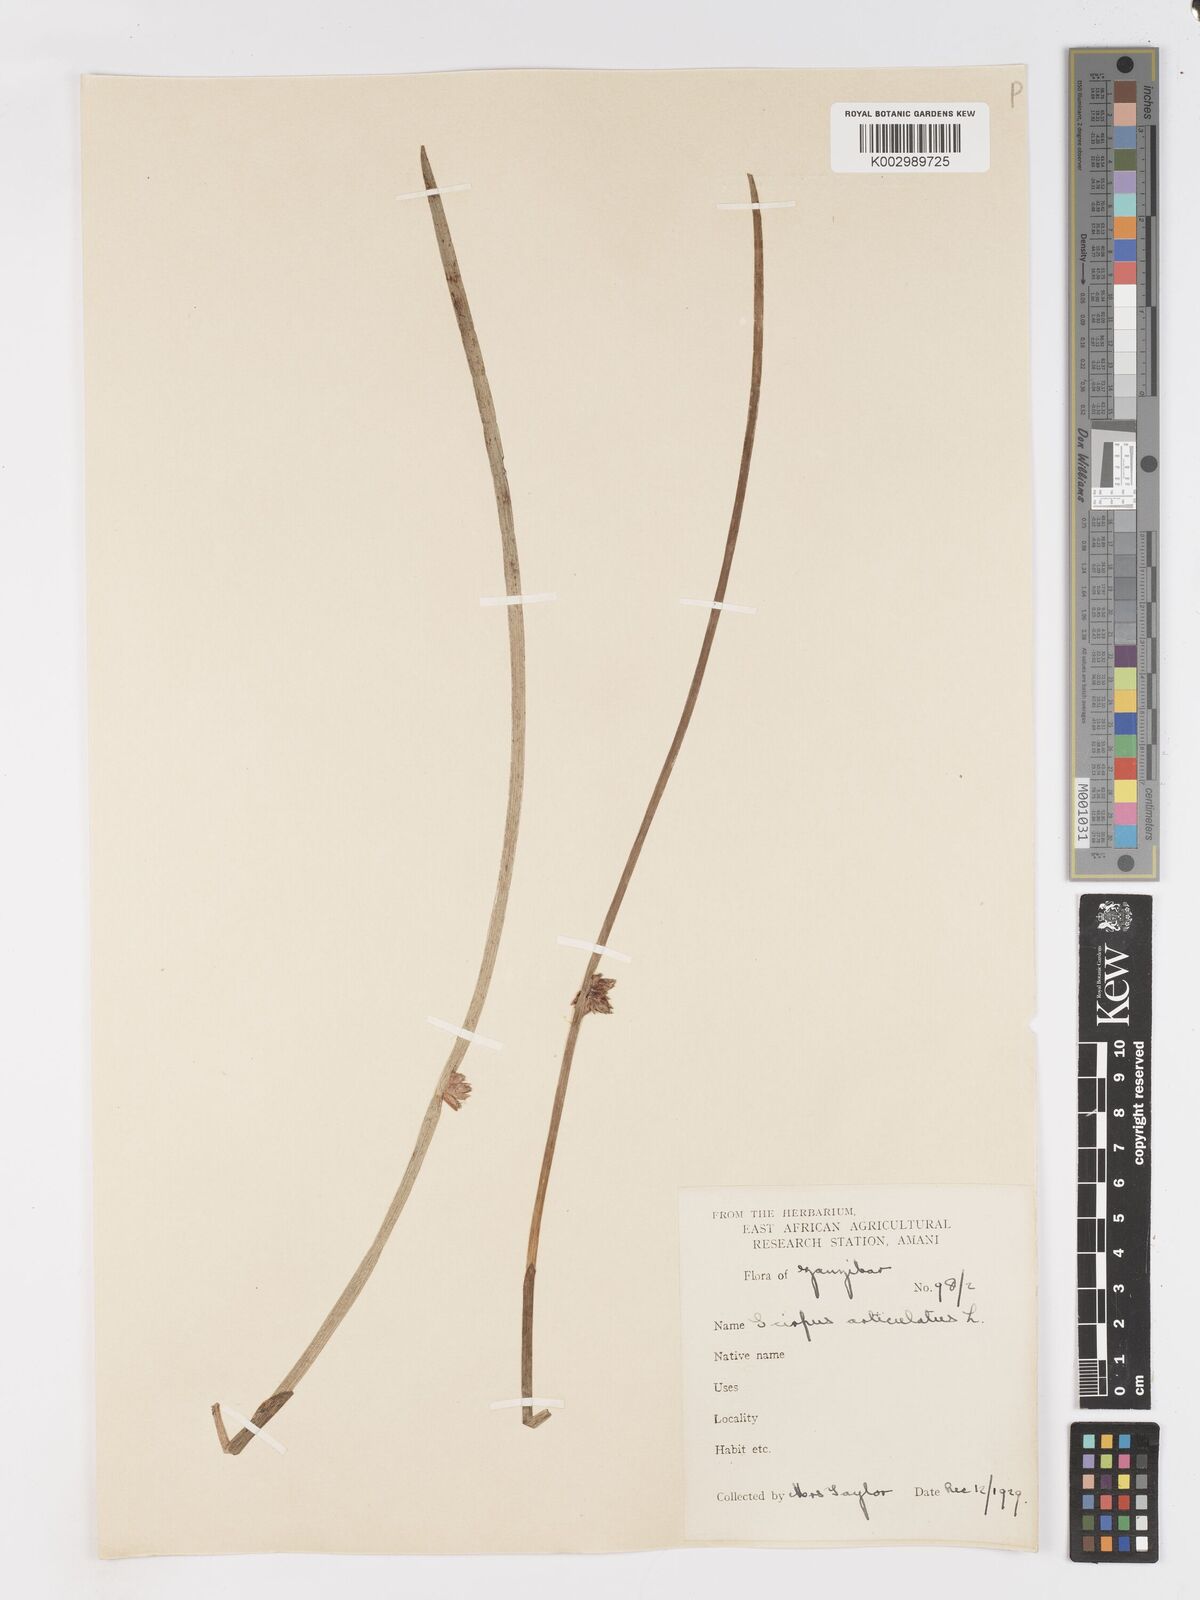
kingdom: Plantae
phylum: Tracheophyta
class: Liliopsida
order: Poales
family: Cyperaceae
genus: Schoenoplectiella
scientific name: Schoenoplectiella articulata
